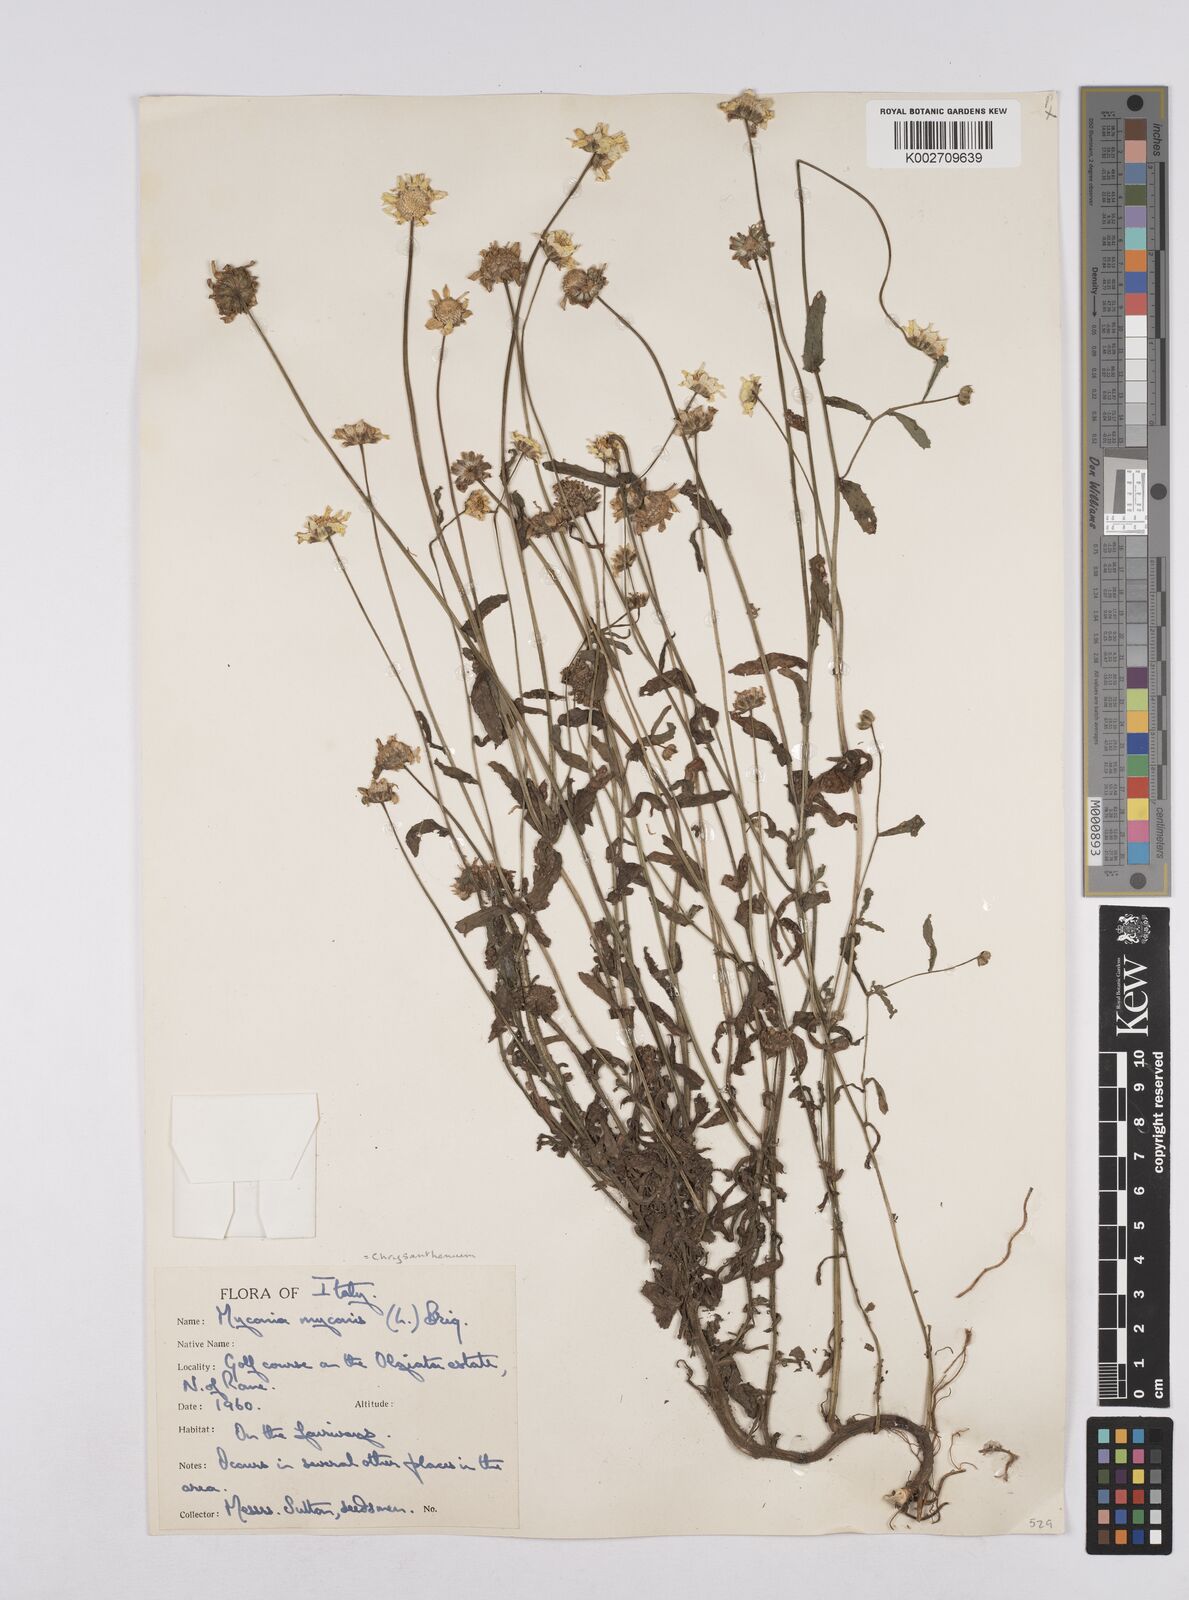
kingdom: Plantae
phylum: Tracheophyta
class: Magnoliopsida
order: Asterales
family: Asteraceae
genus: Coleostephus
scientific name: Coleostephus myconis
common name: Mediterranean marigold
